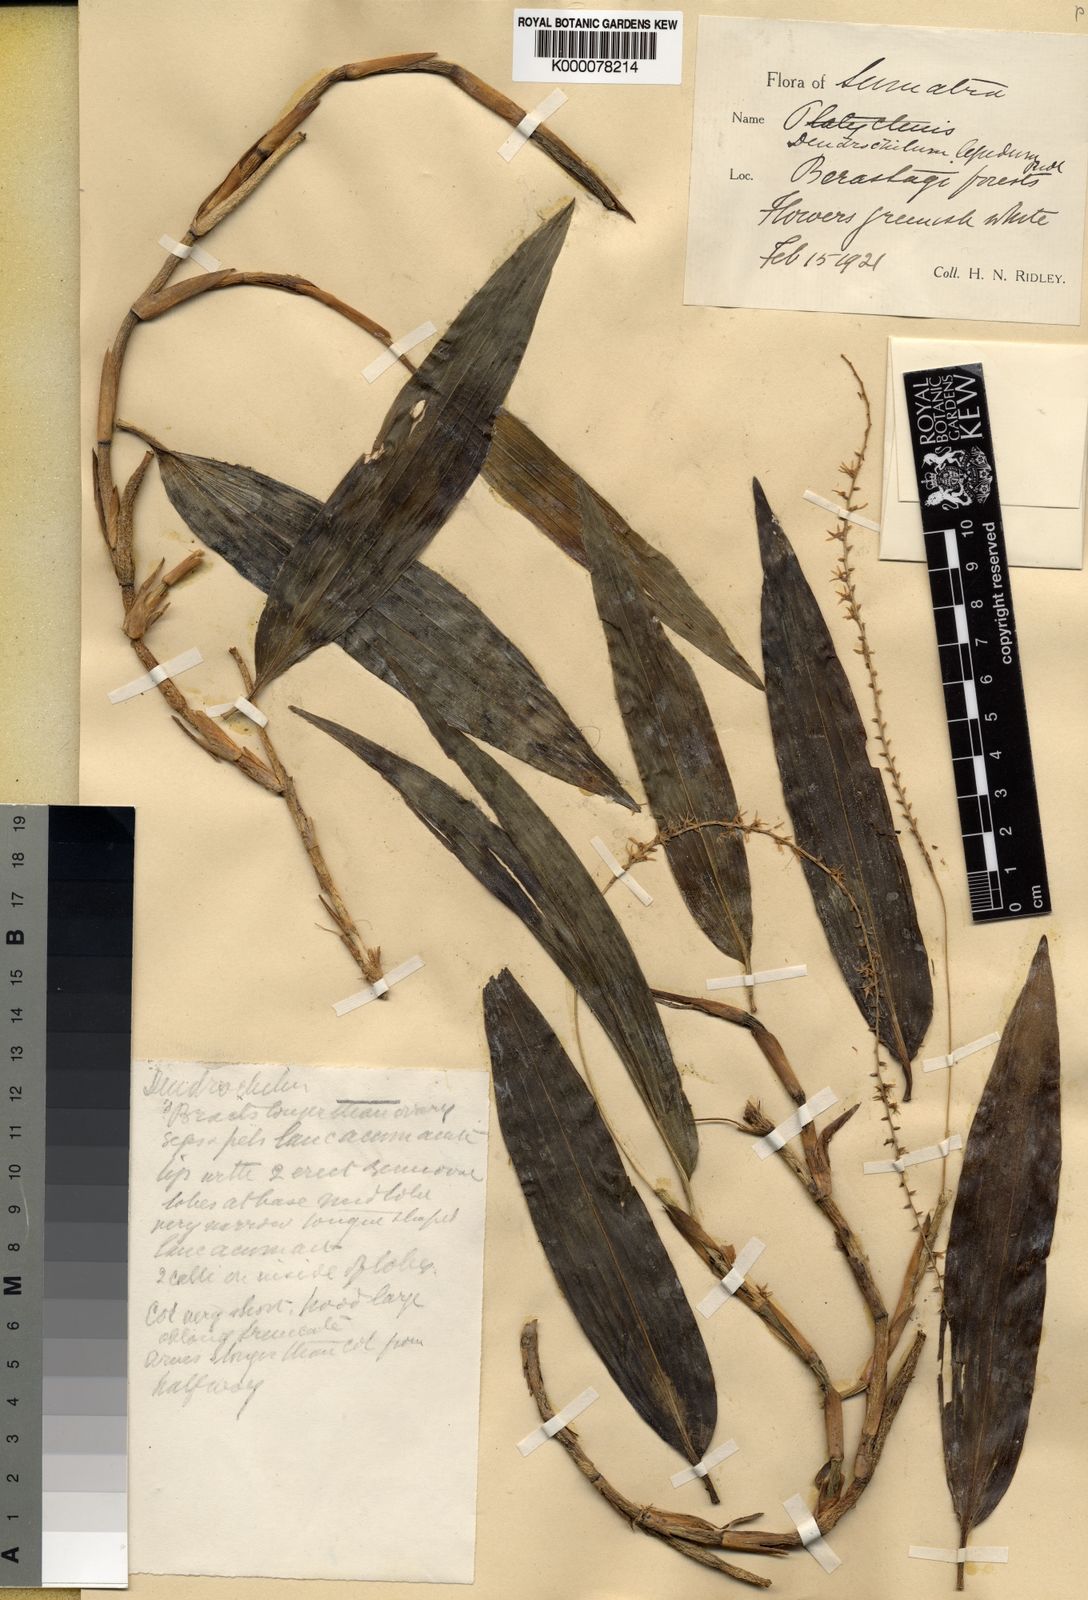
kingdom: Plantae
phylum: Tracheophyta
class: Liliopsida
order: Asparagales
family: Orchidaceae
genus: Coelogyne
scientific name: Coelogyne lepida
